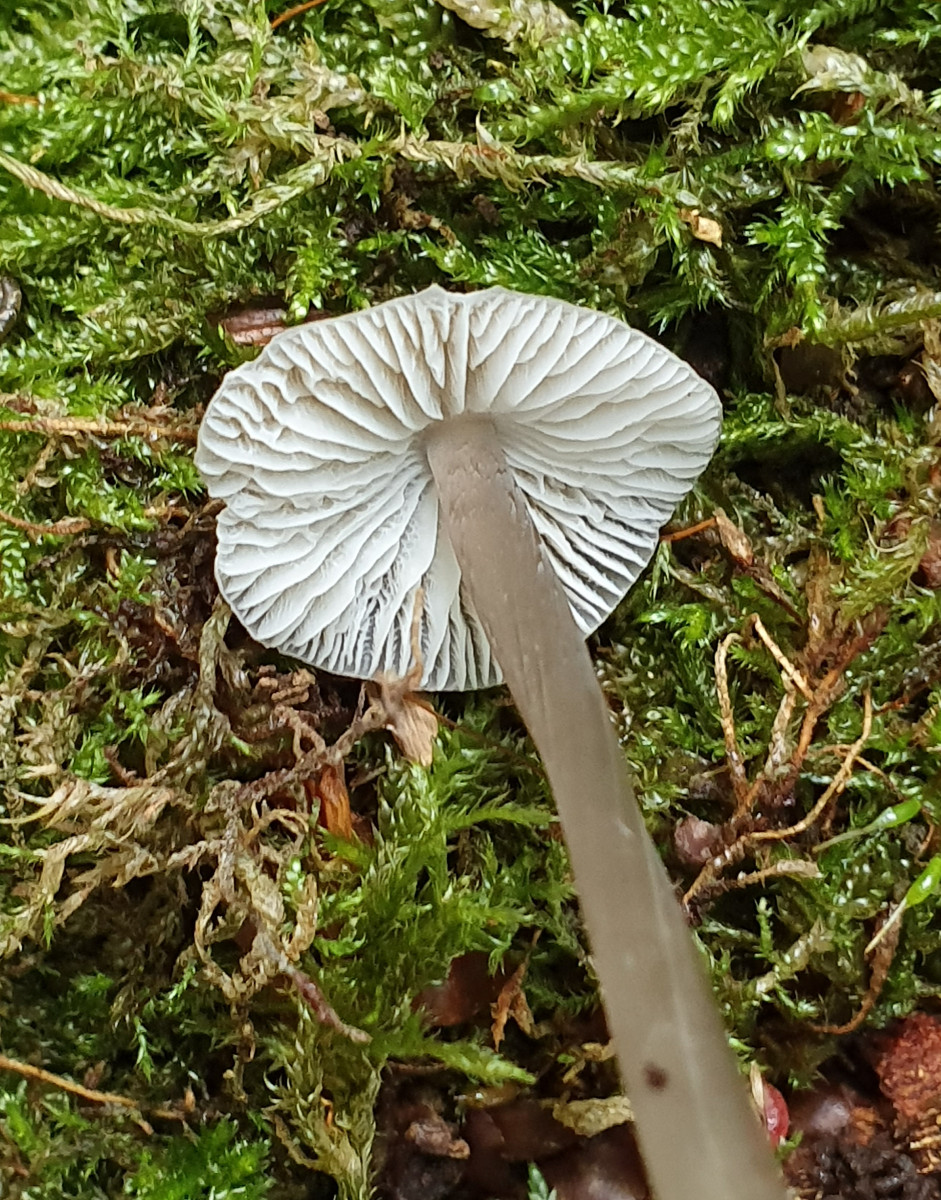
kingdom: Fungi
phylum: Basidiomycota
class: Agaricomycetes
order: Agaricales
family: Mycenaceae
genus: Mycena
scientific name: Mycena polygramma
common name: mangestribet huesvamp
